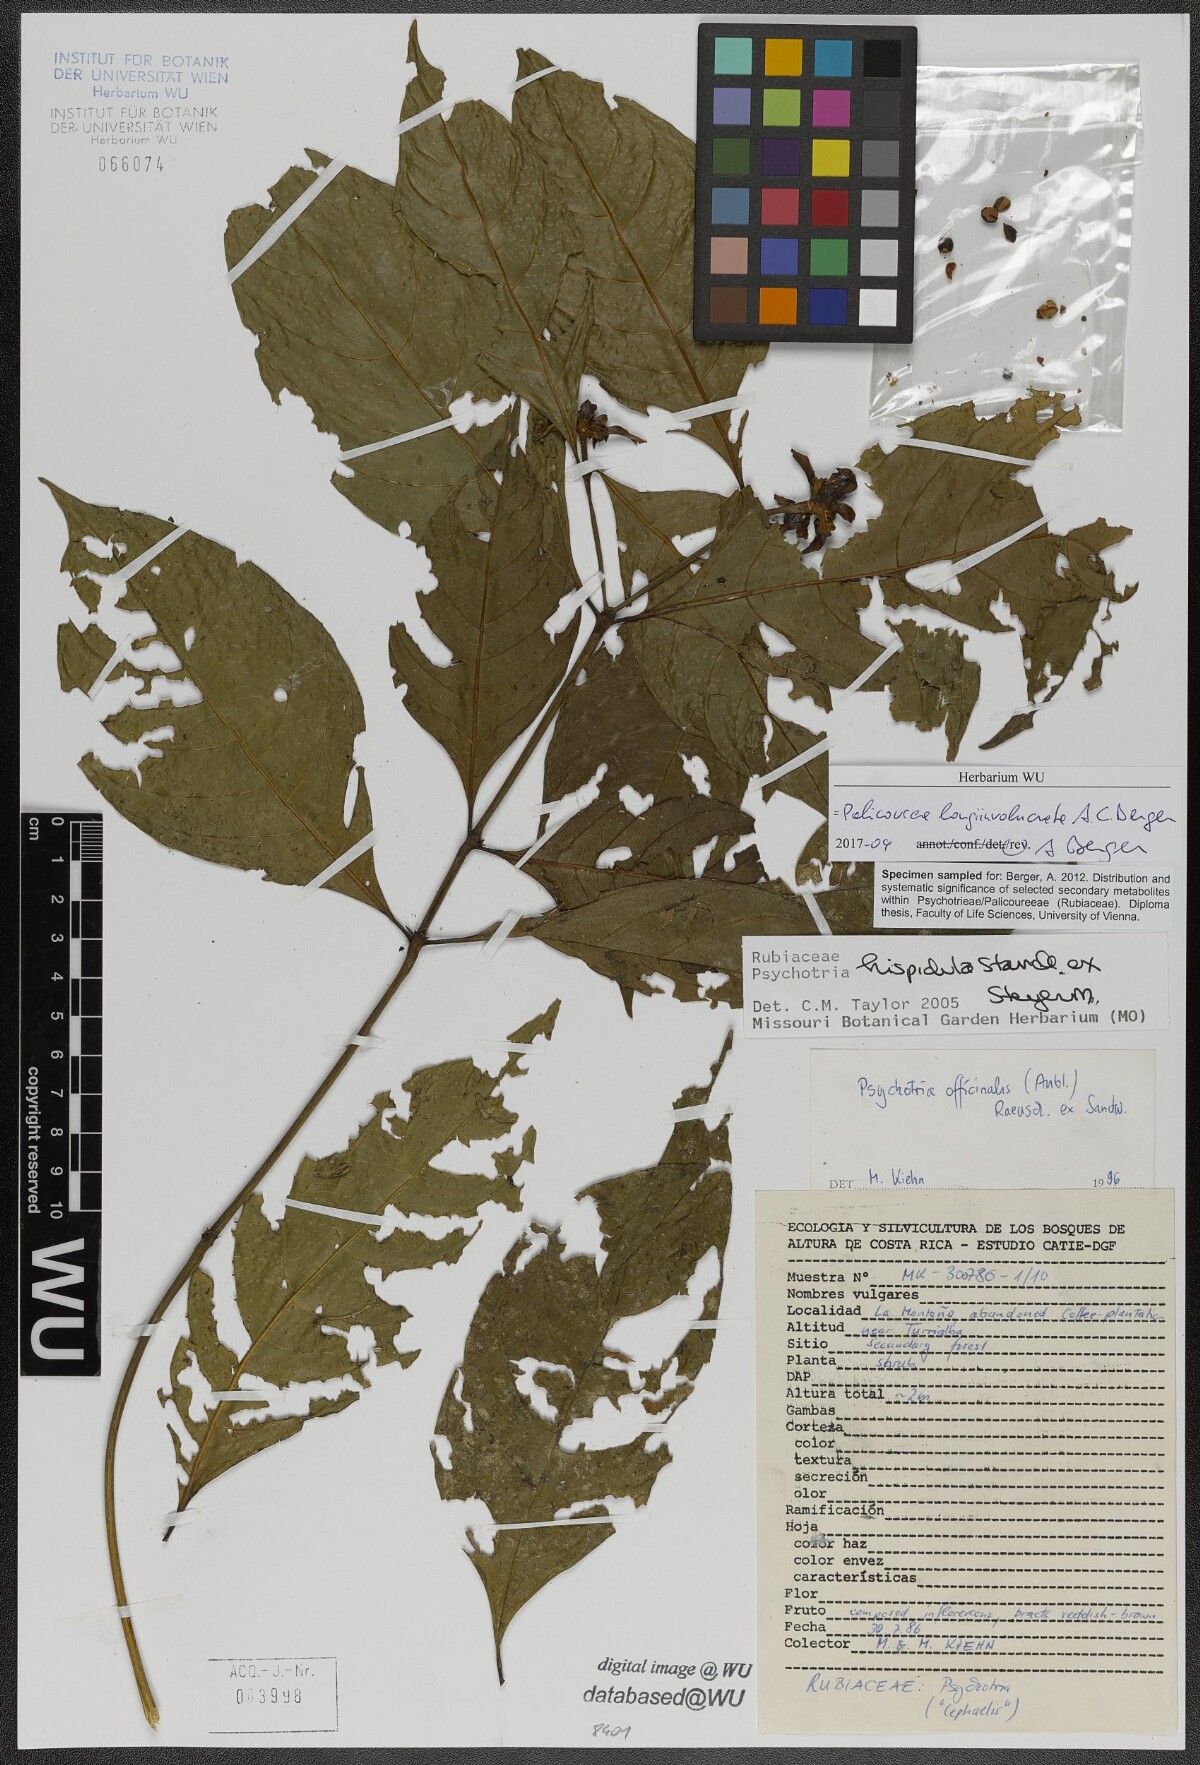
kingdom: Plantae
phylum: Tracheophyta
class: Magnoliopsida
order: Gentianales
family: Rubiaceae
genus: Palicourea
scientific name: Palicourea longiinvolucrata
